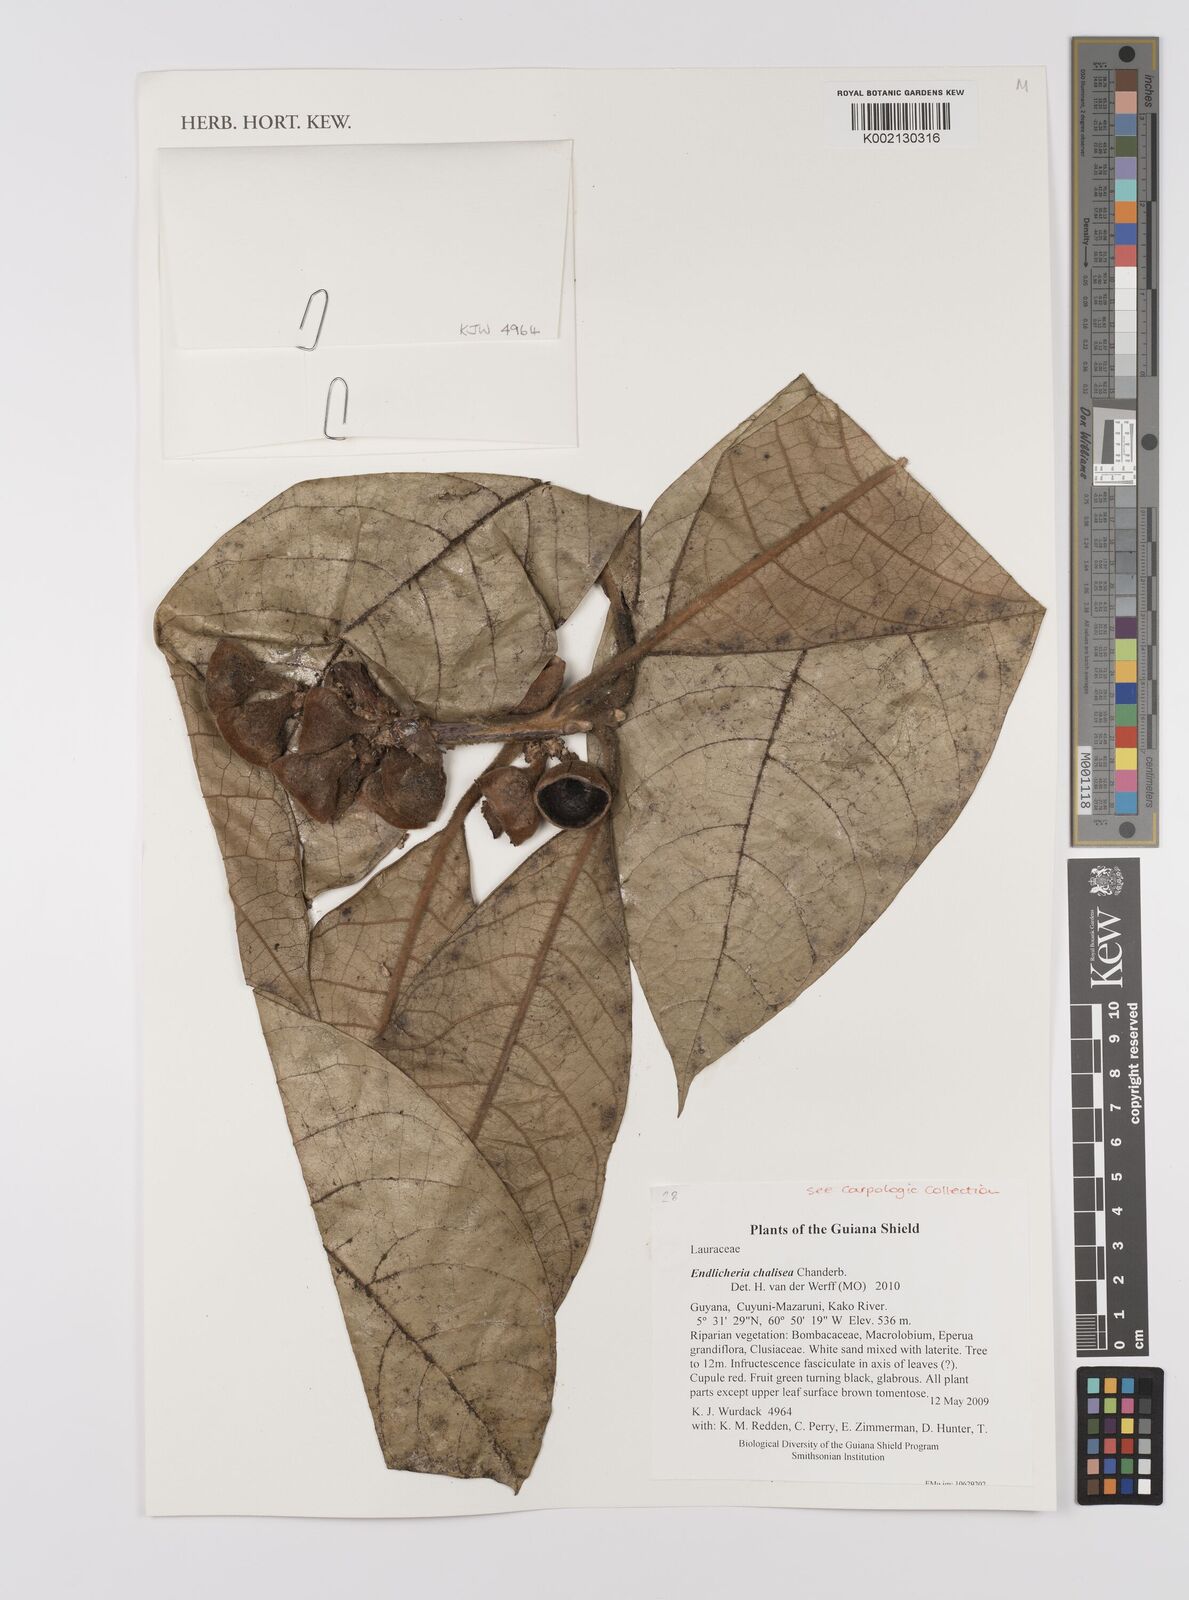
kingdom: Plantae
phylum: Tracheophyta
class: Magnoliopsida
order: Laurales
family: Lauraceae
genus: Endlicheria
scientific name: Endlicheria chalisea
